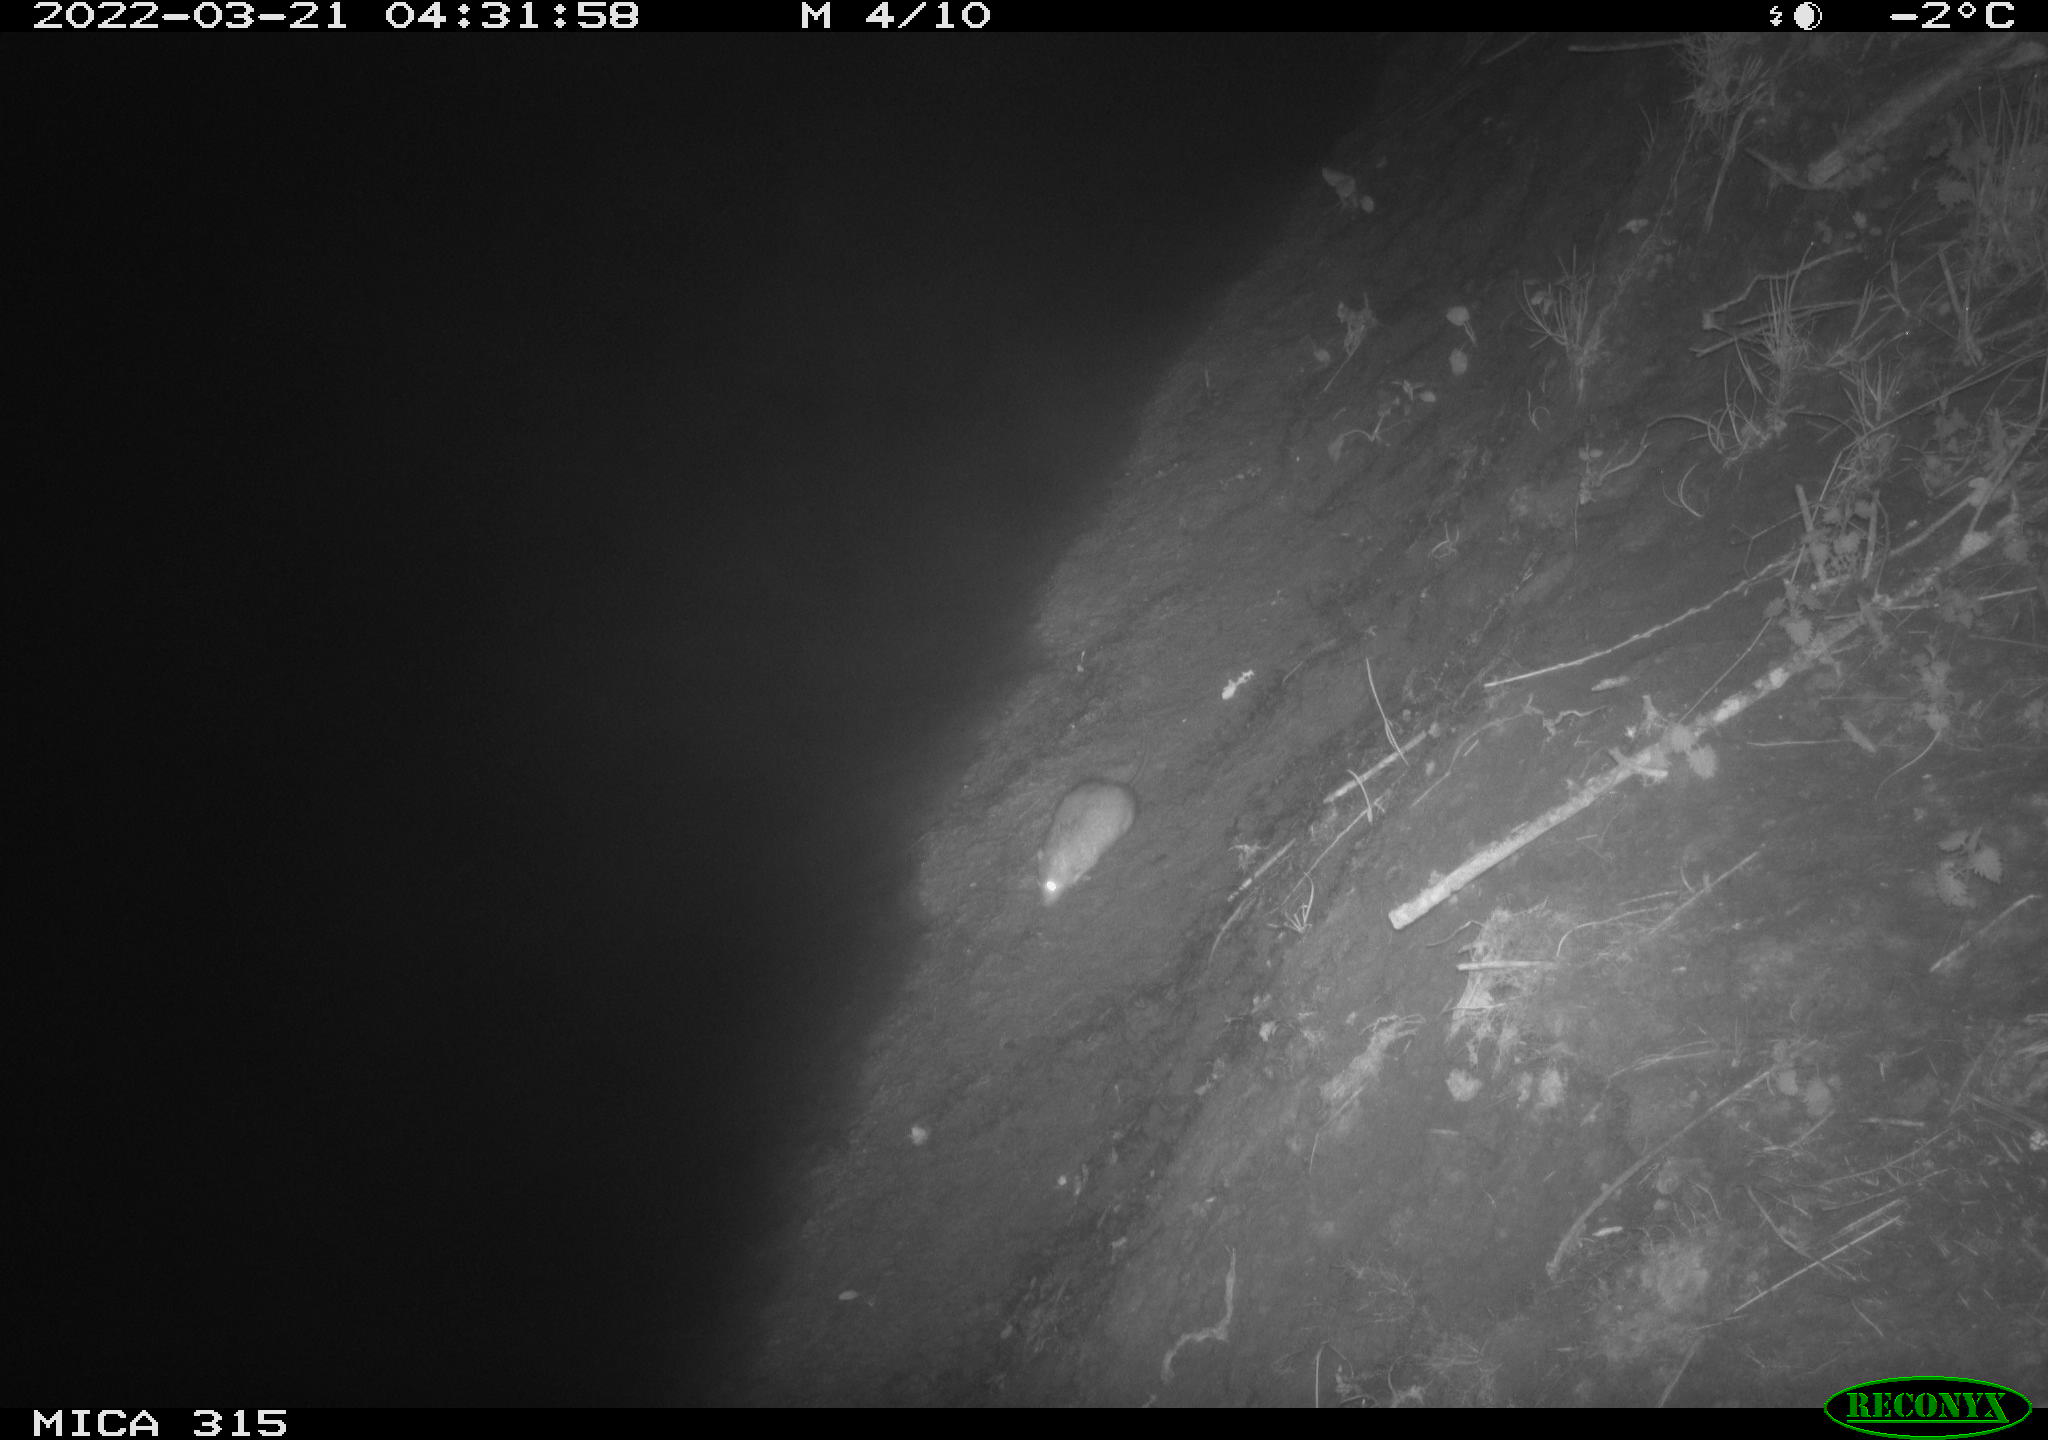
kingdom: Animalia
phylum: Chordata
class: Mammalia
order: Rodentia
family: Muridae
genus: Rattus
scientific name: Rattus norvegicus
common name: Brown rat
